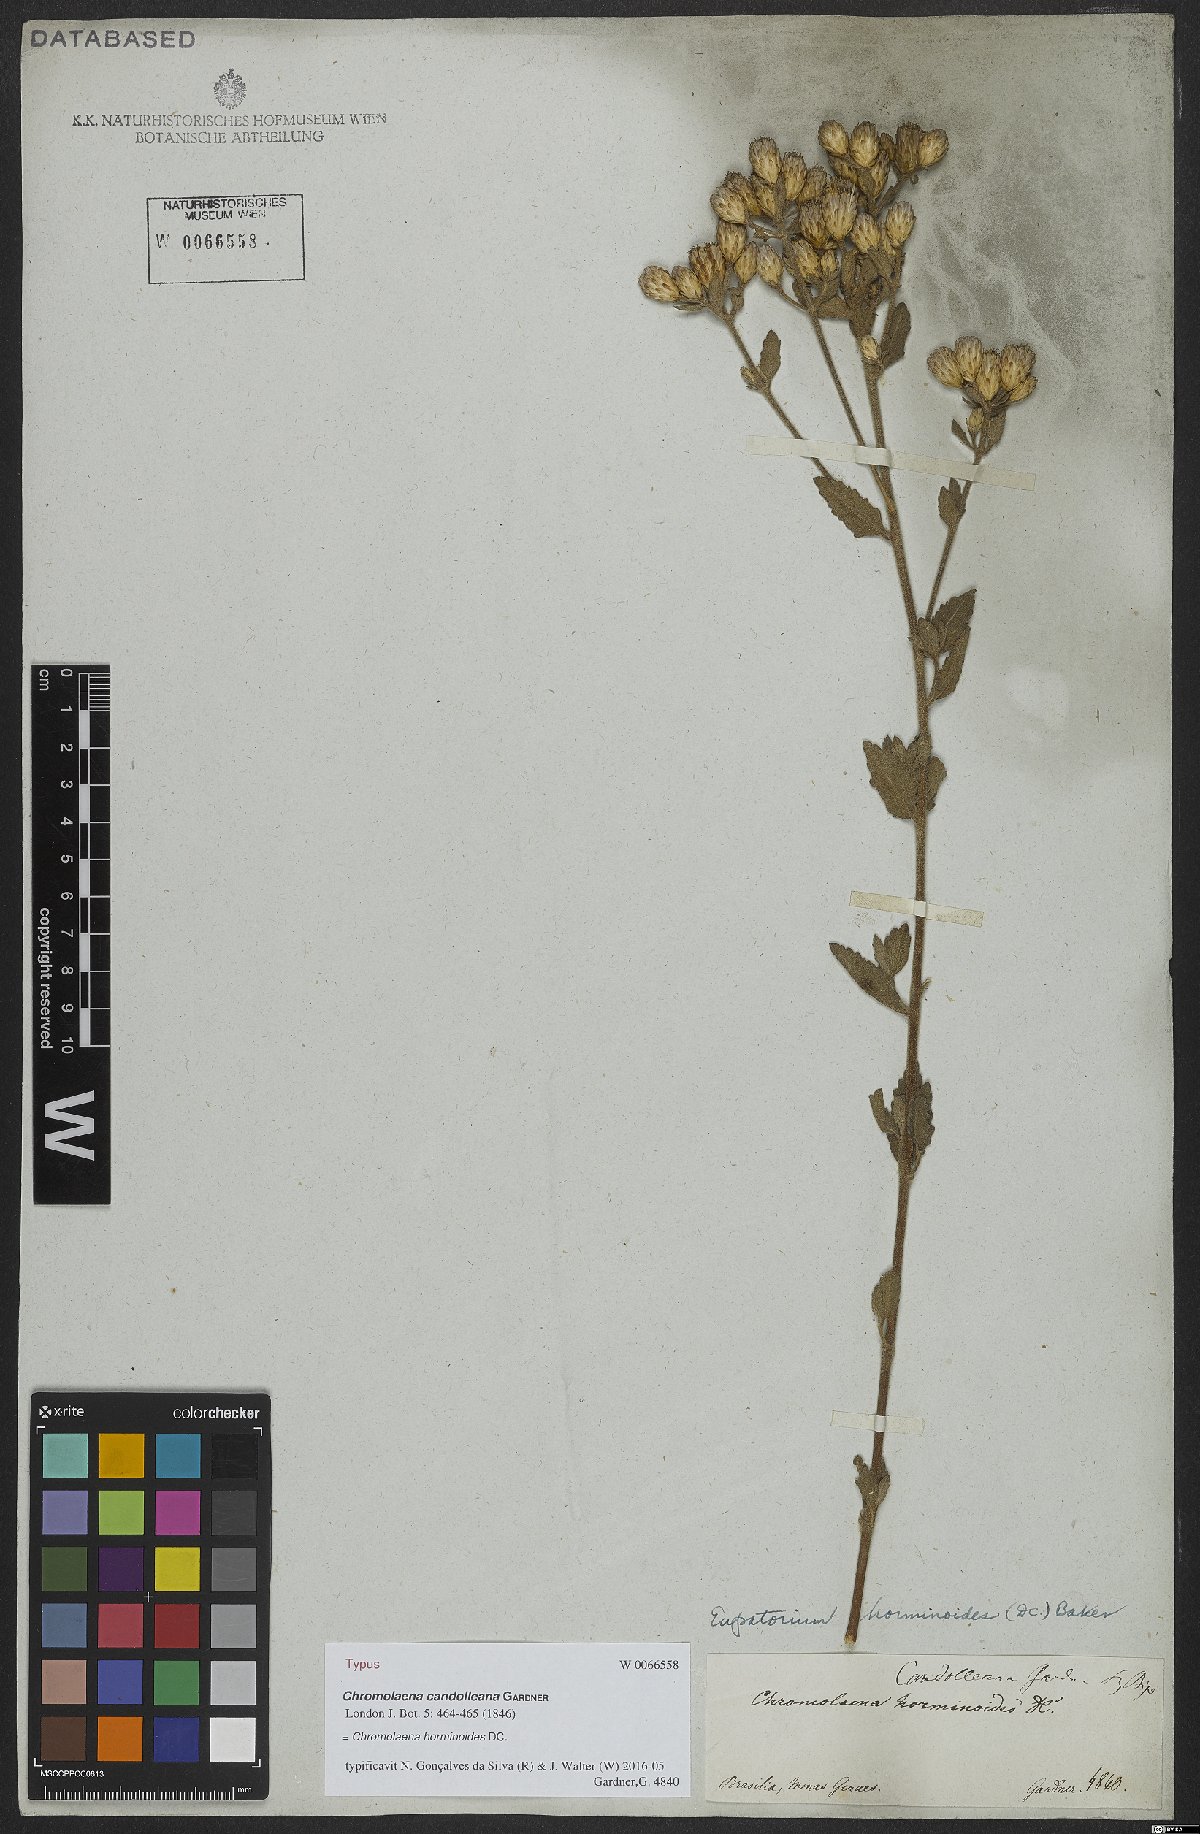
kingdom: Plantae
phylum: Tracheophyta
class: Magnoliopsida
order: Asterales
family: Asteraceae
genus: Chromolaena
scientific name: Chromolaena horminoides
